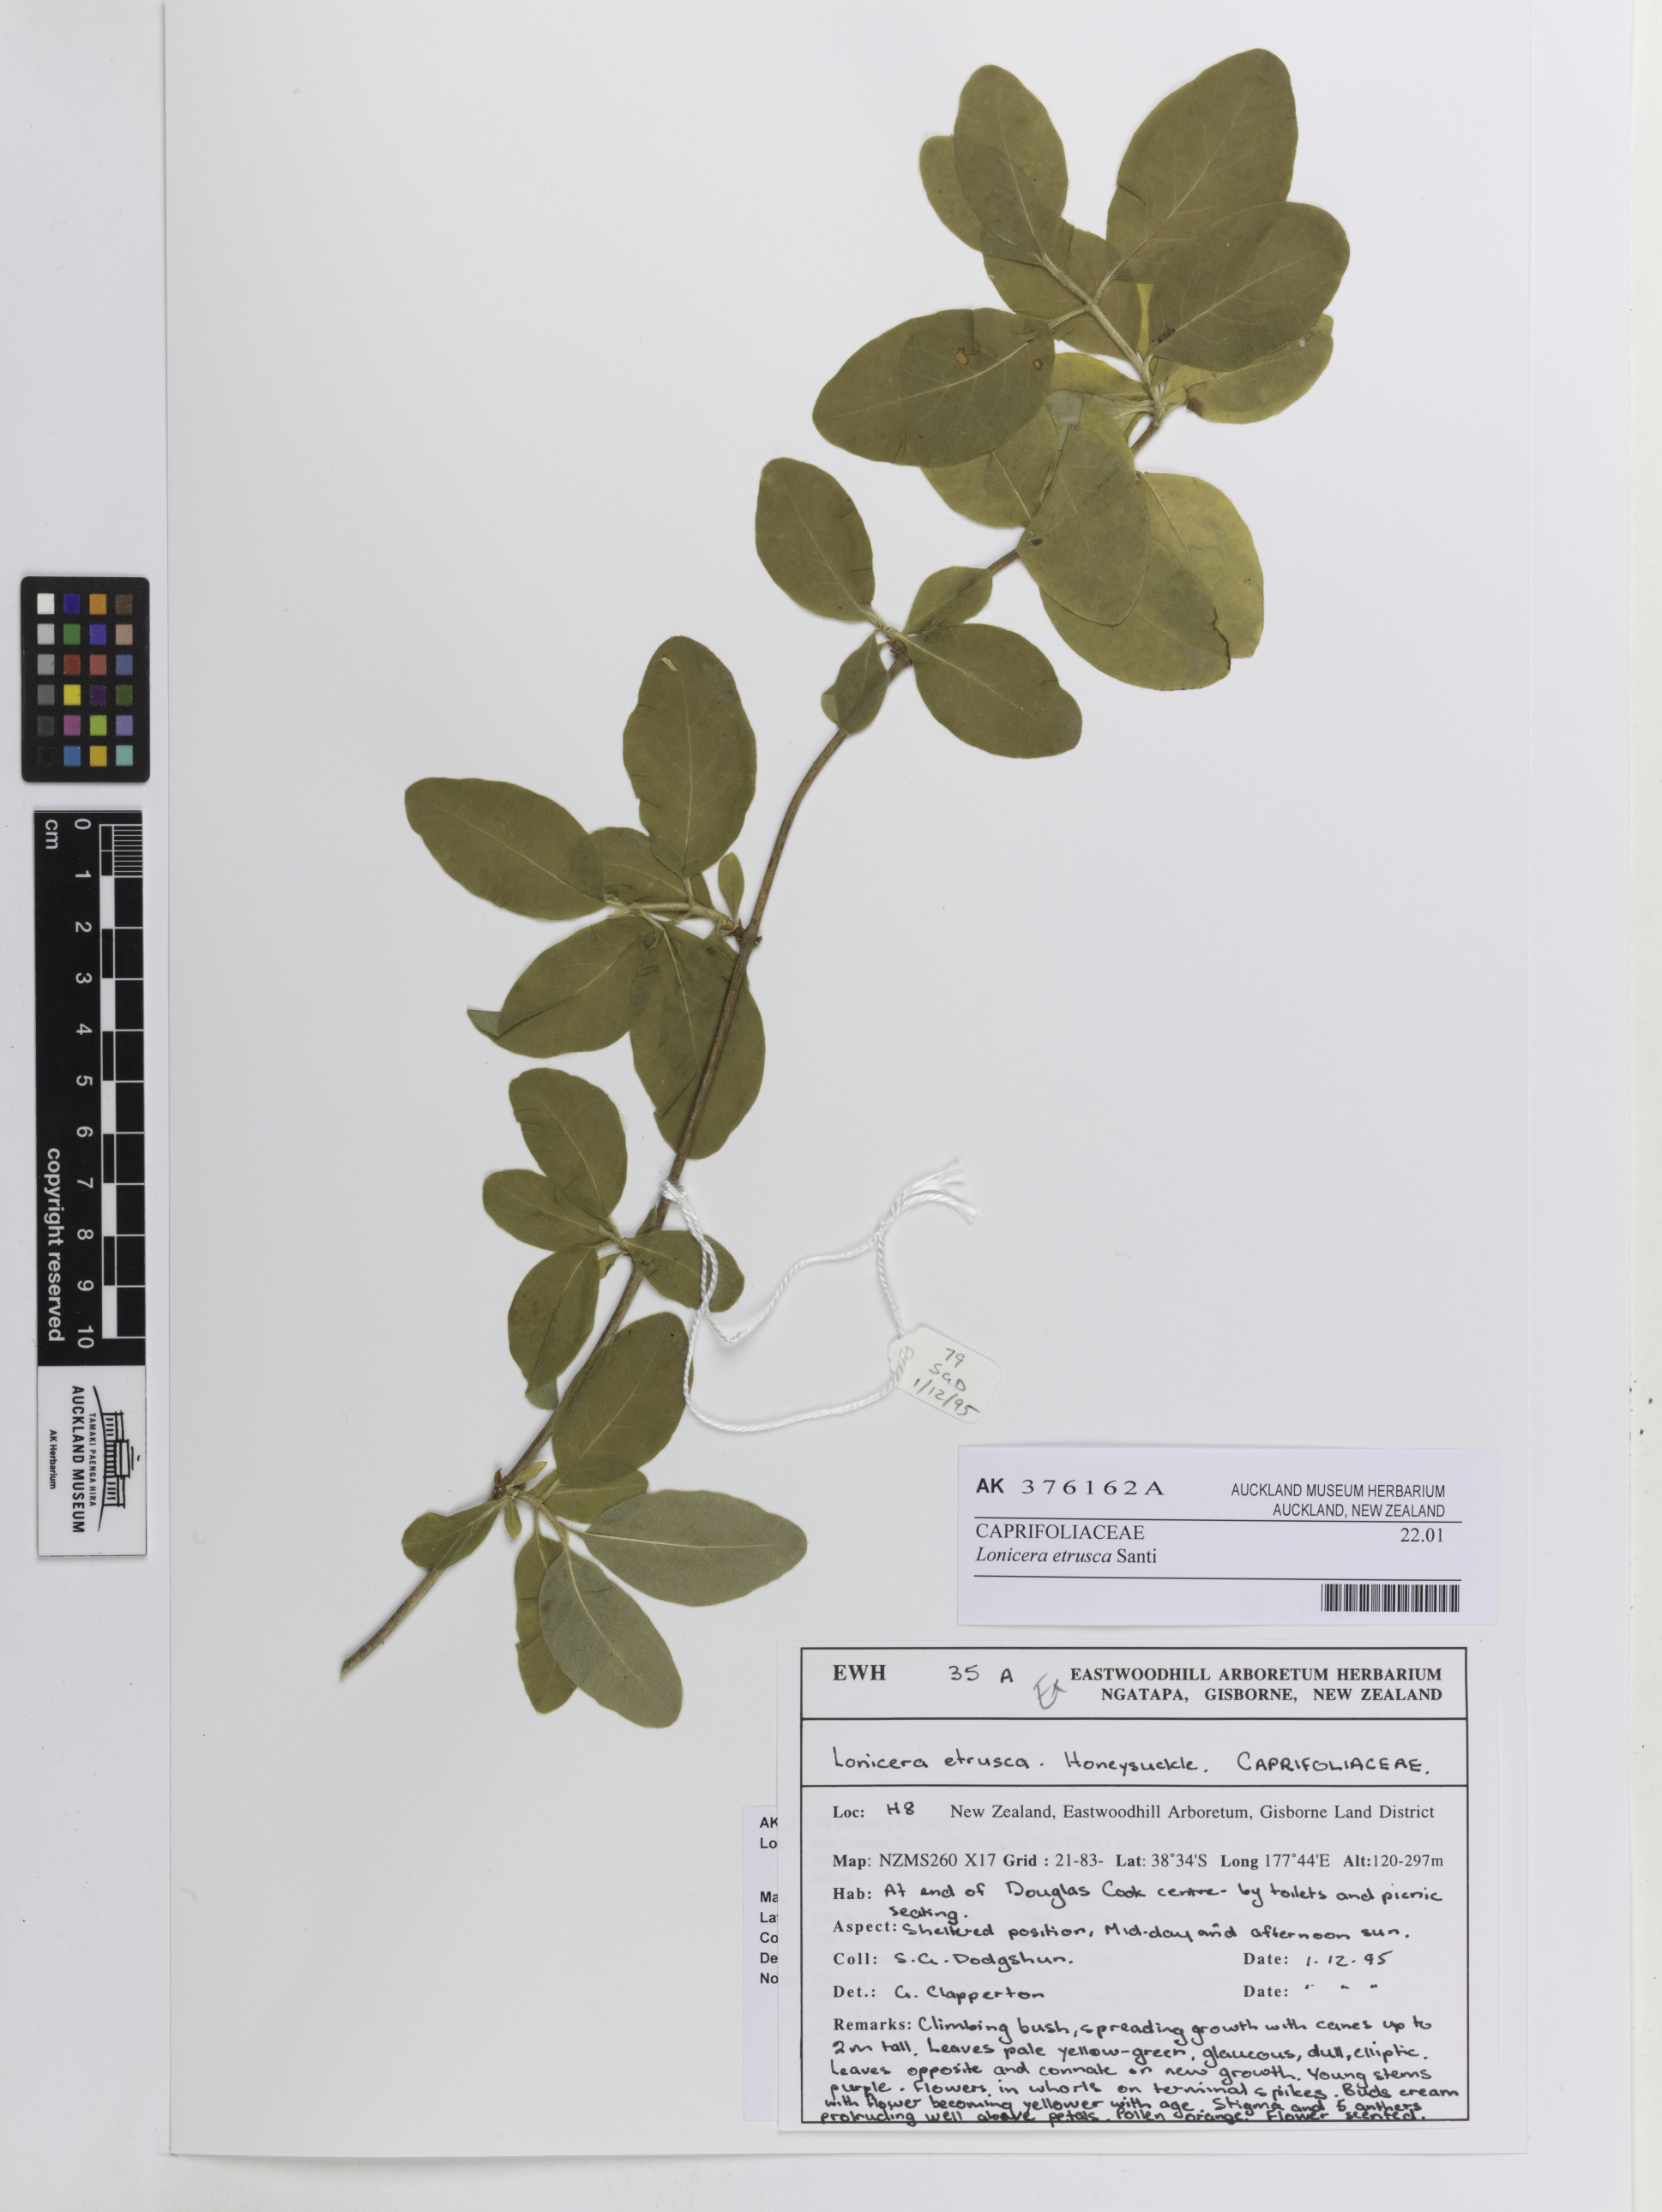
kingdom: Plantae
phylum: Tracheophyta
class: Magnoliopsida
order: Dipsacales
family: Caprifoliaceae
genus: Lonicera
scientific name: Lonicera etrusca
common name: Etruscan honeysuckle
